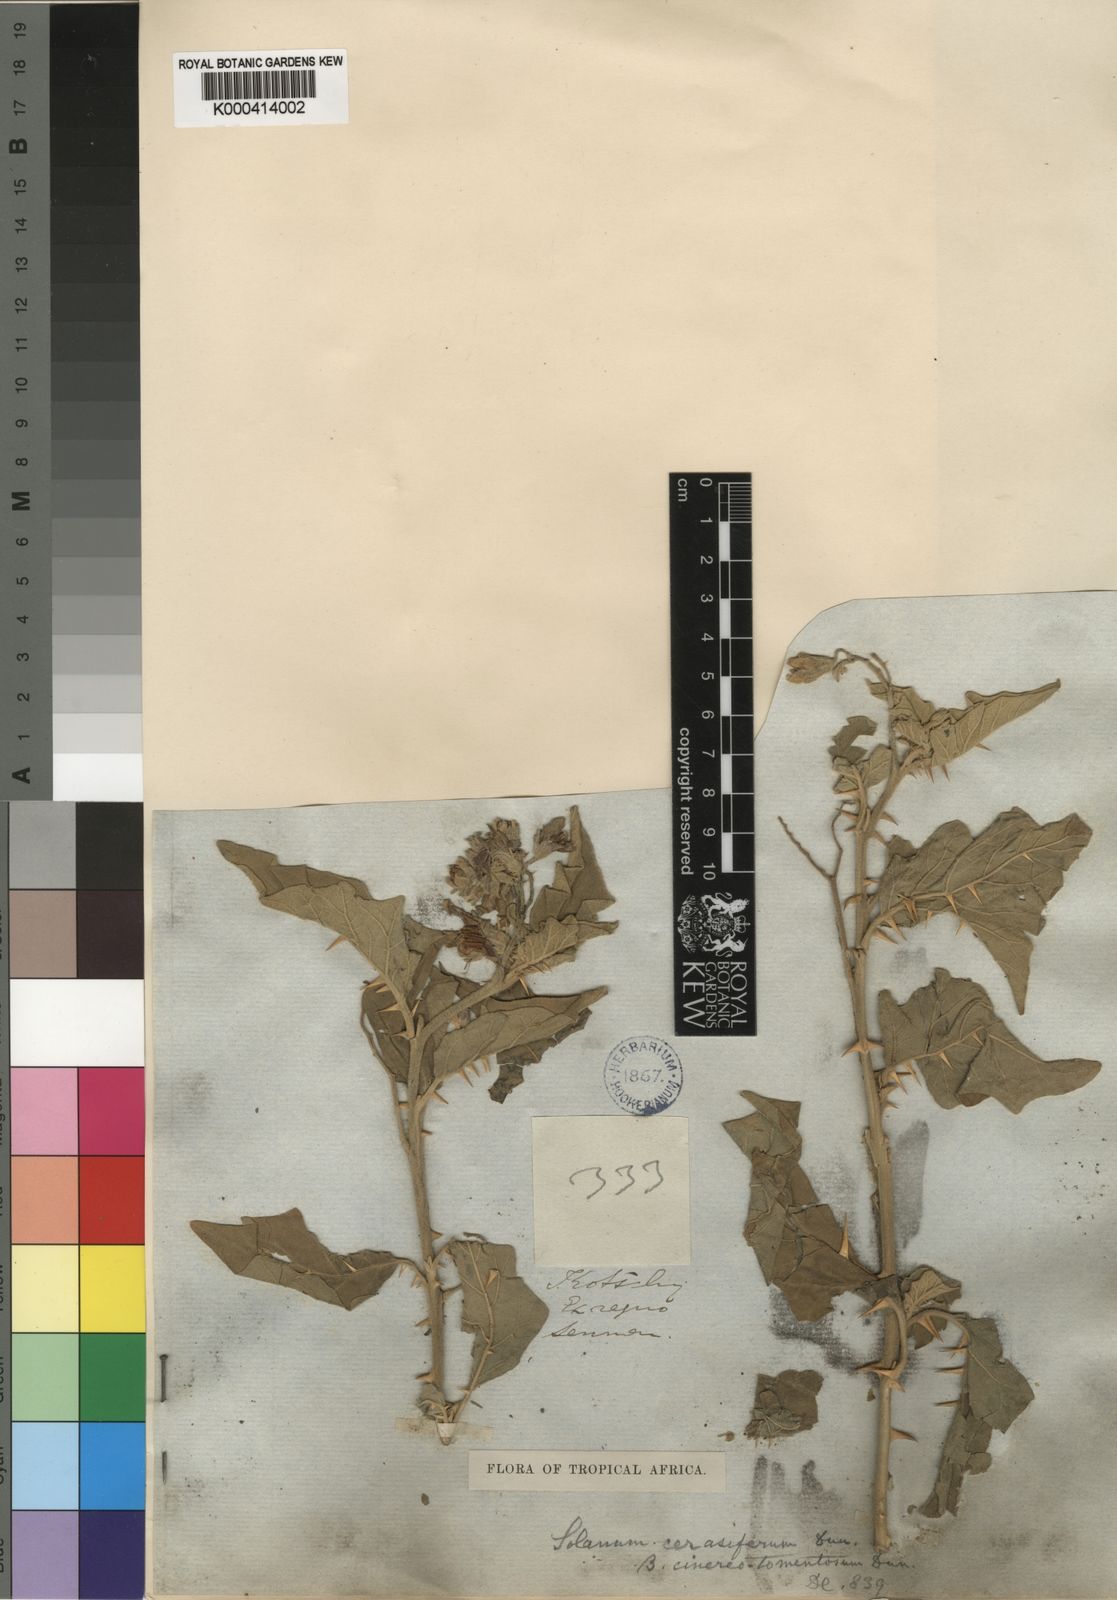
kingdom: Plantae
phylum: Tracheophyta
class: Magnoliopsida
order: Solanales
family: Solanaceae
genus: Solanum
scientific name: Solanum incanum
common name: Bitter apple
